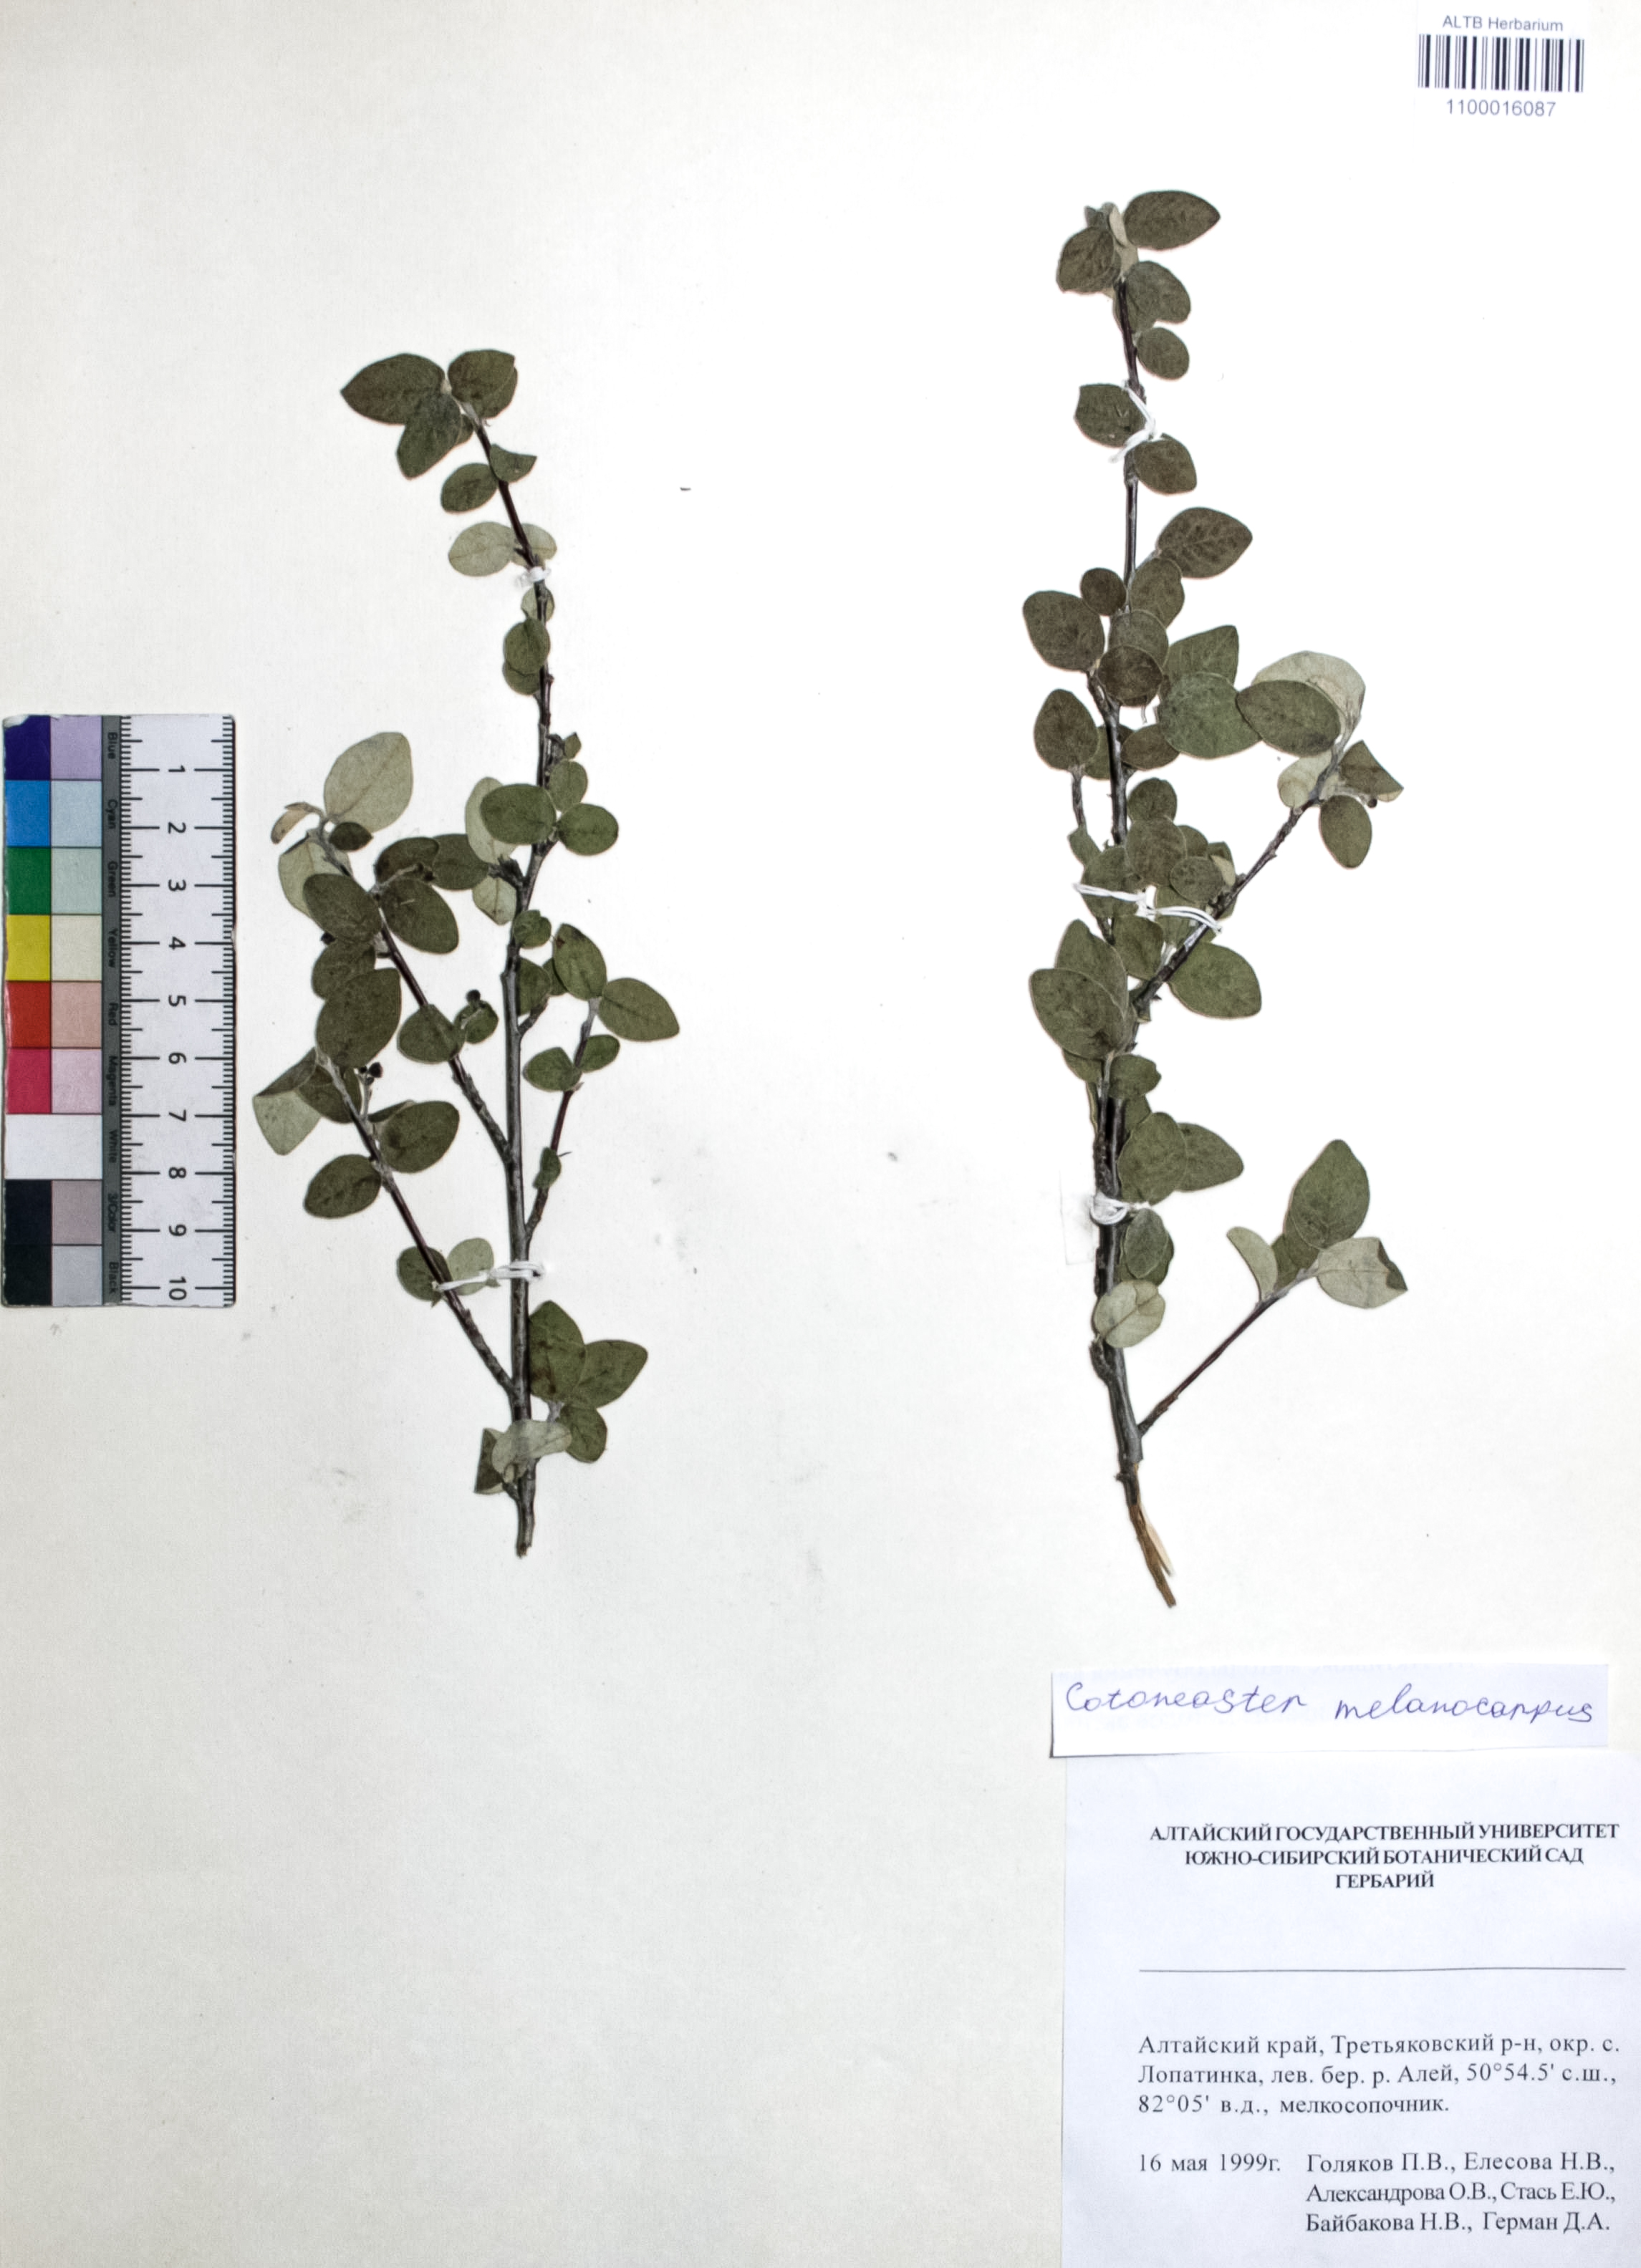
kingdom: Plantae
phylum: Tracheophyta
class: Magnoliopsida
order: Rosales
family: Rosaceae
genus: Cotoneaster
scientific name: Cotoneaster niger
